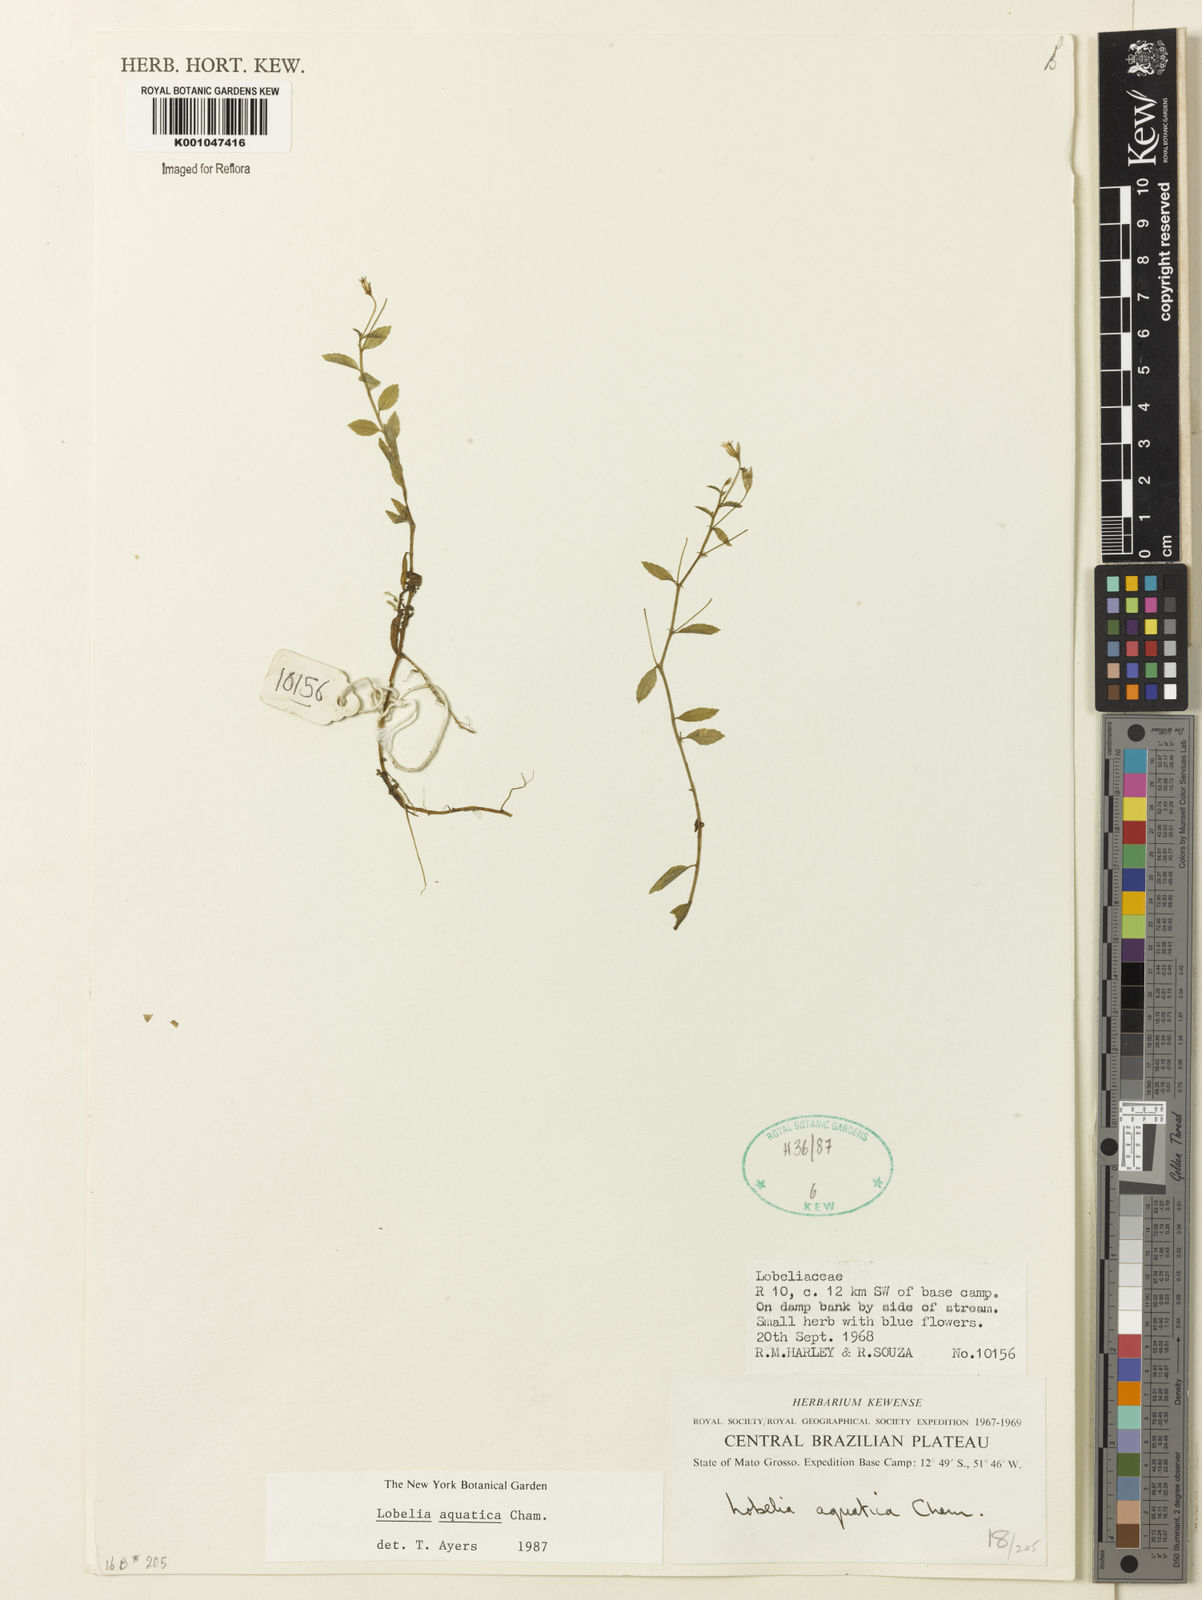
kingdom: Plantae
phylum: Tracheophyta
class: Magnoliopsida
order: Asterales
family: Campanulaceae
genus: Lobelia
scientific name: Lobelia aquatica
